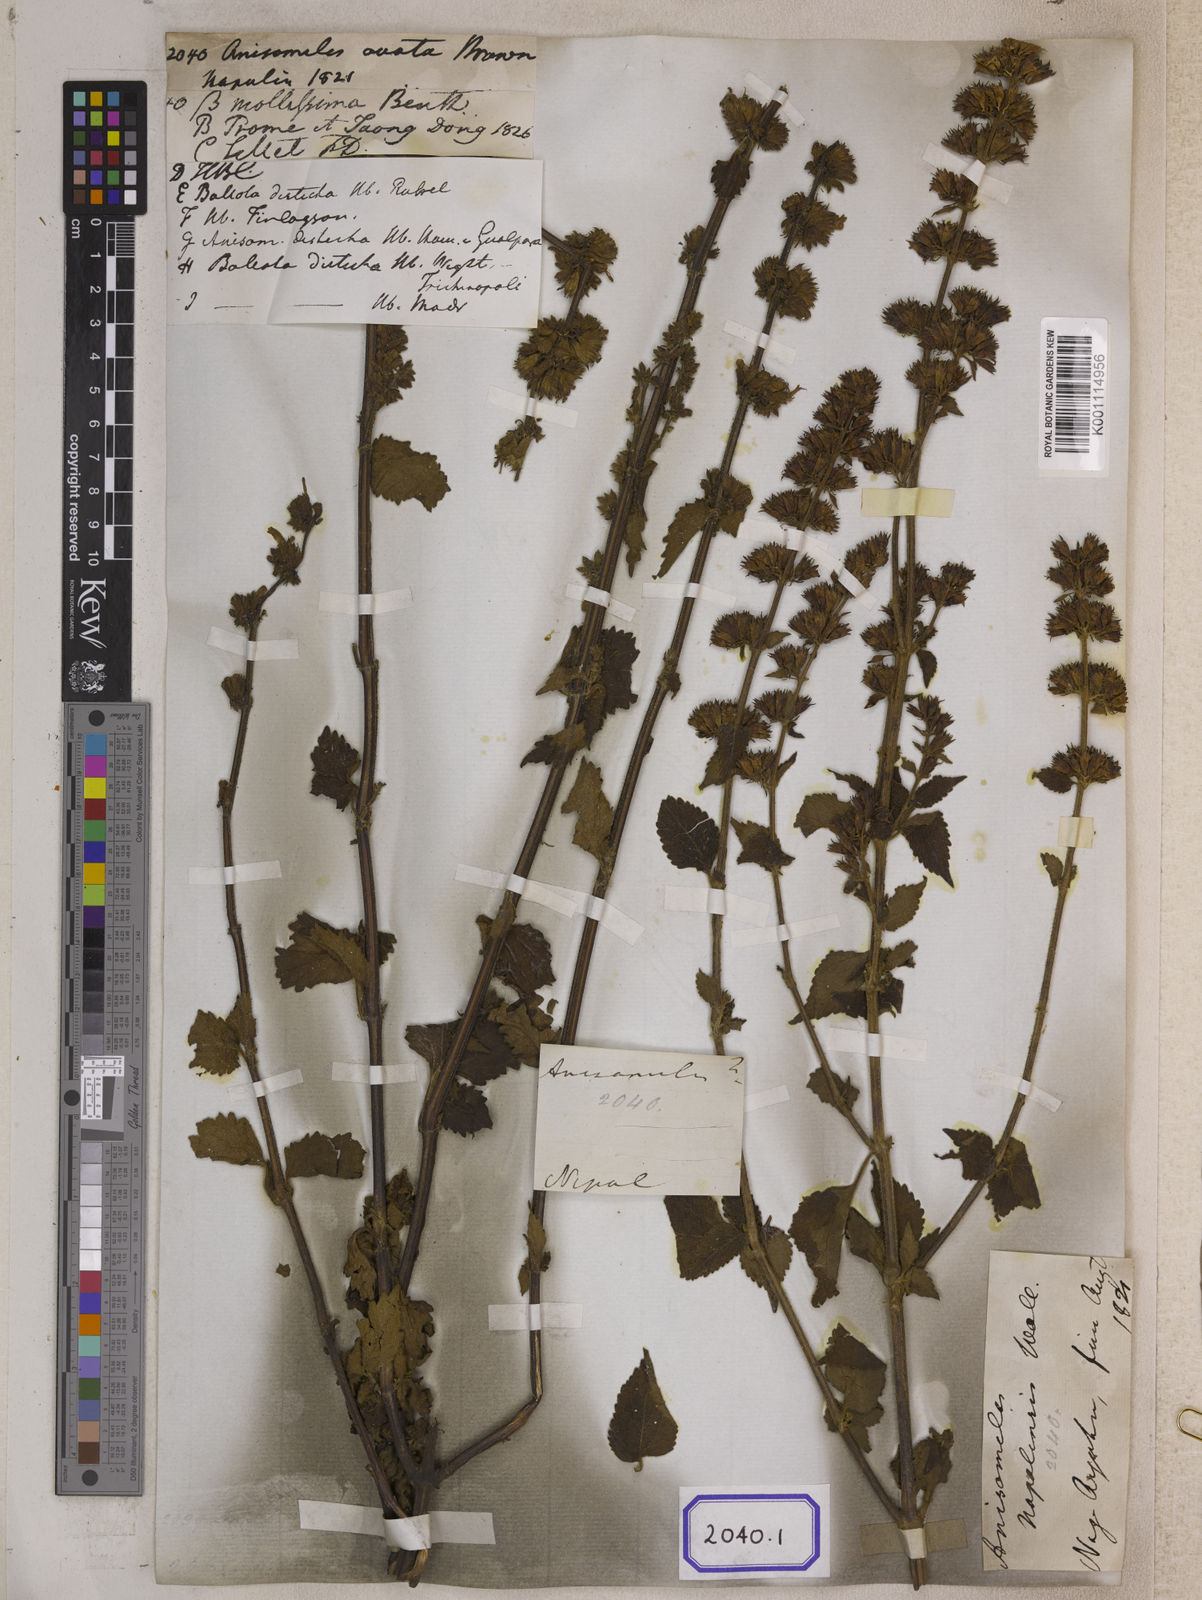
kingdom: Plantae
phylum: Tracheophyta
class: Magnoliopsida
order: Lamiales
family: Lamiaceae
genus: Anisomeles
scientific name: Anisomeles
